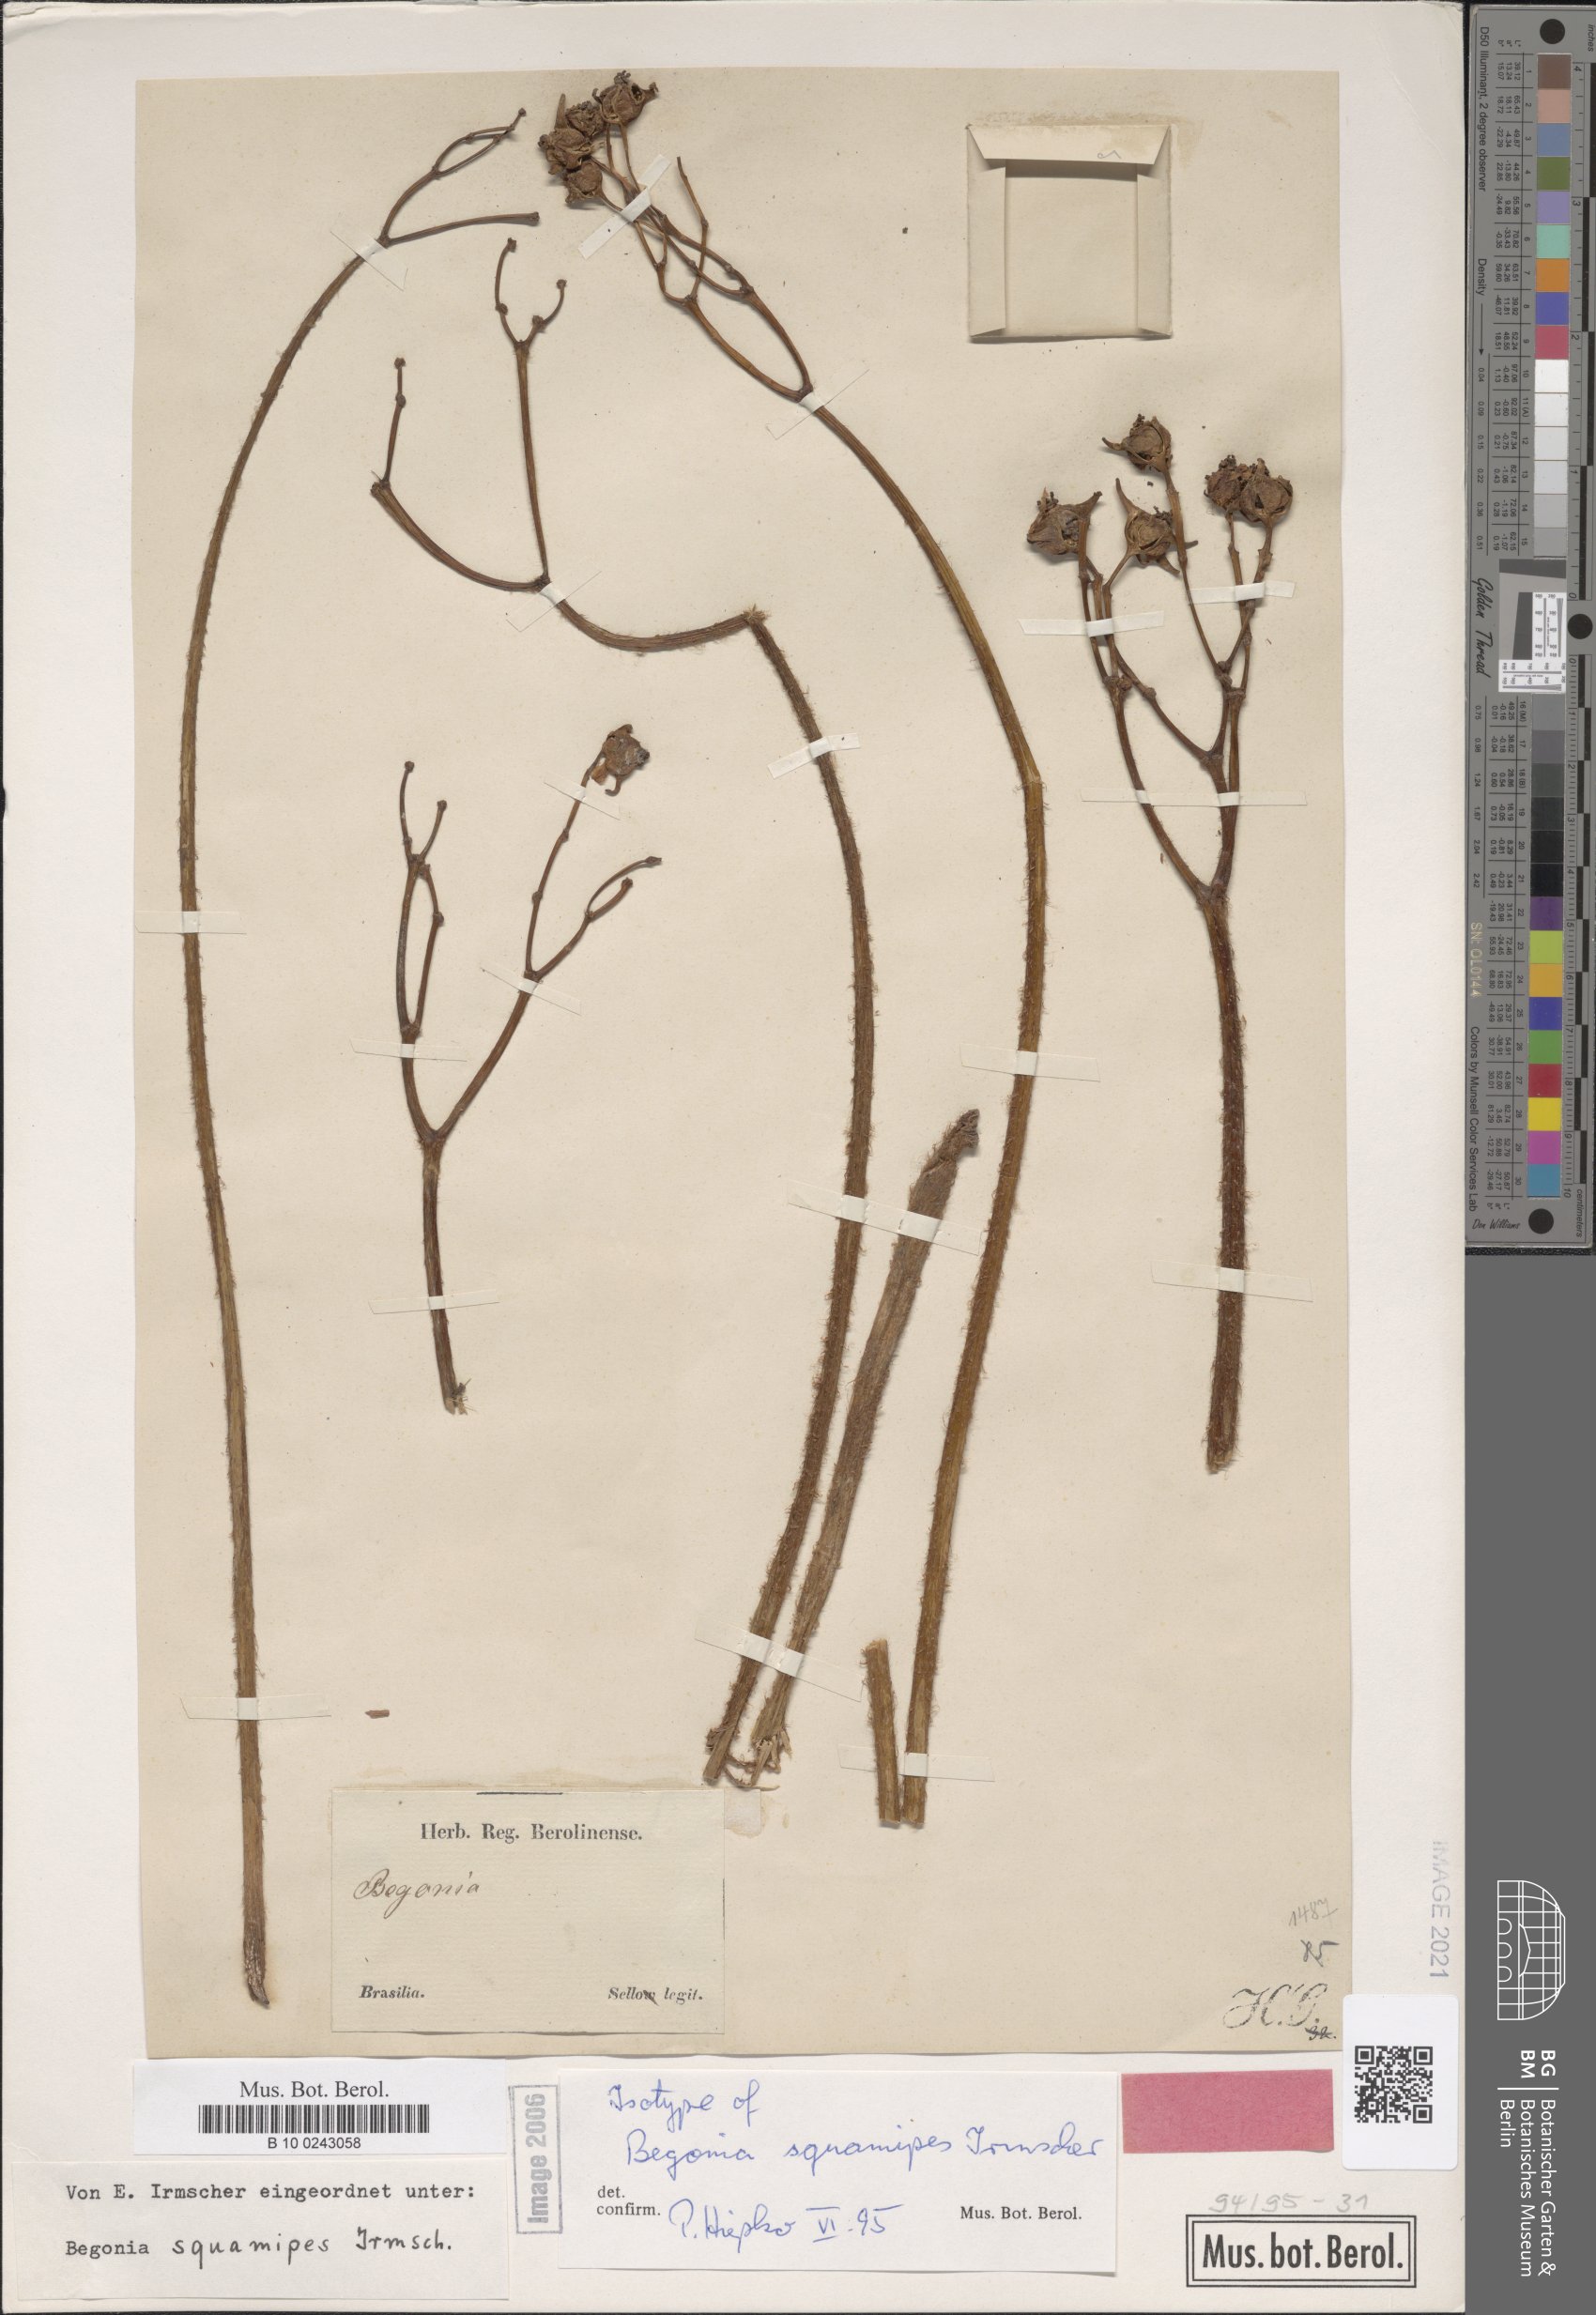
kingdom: Plantae
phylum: Tracheophyta
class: Magnoliopsida
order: Cucurbitales
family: Begoniaceae
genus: Begonia
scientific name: Begonia squamipes
